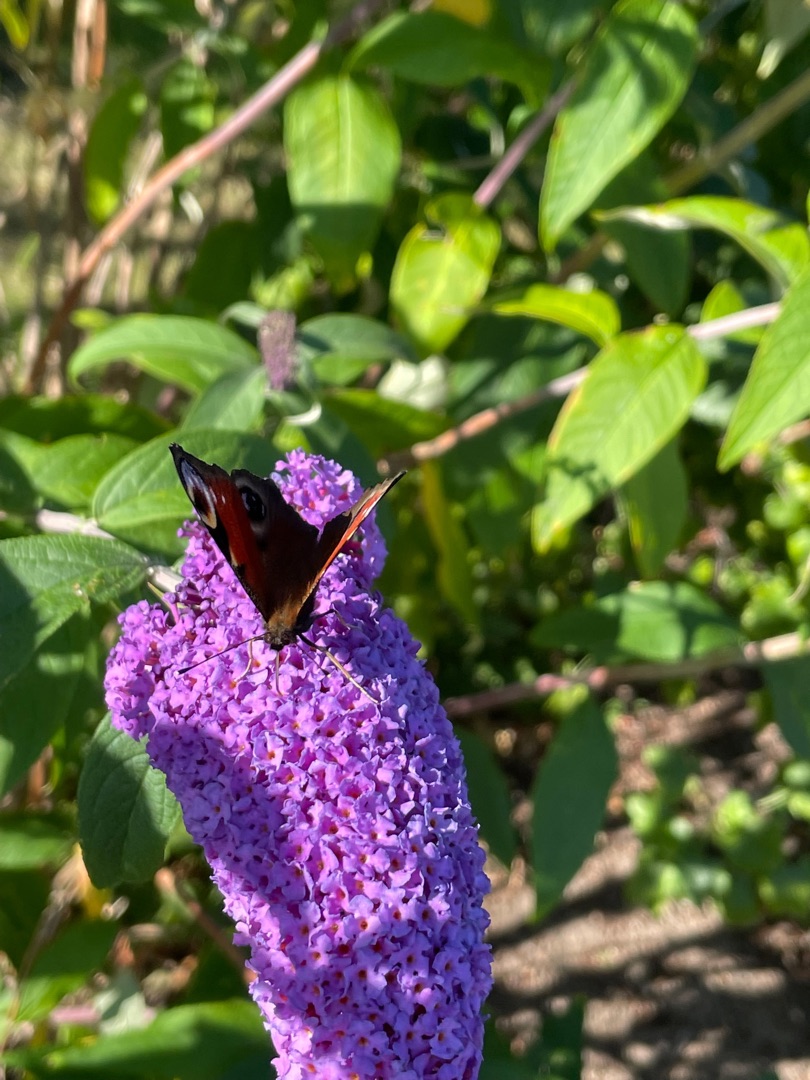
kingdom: Animalia
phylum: Arthropoda
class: Insecta
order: Lepidoptera
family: Nymphalidae
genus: Aglais
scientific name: Aglais io
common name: Dagpåfugleøje
